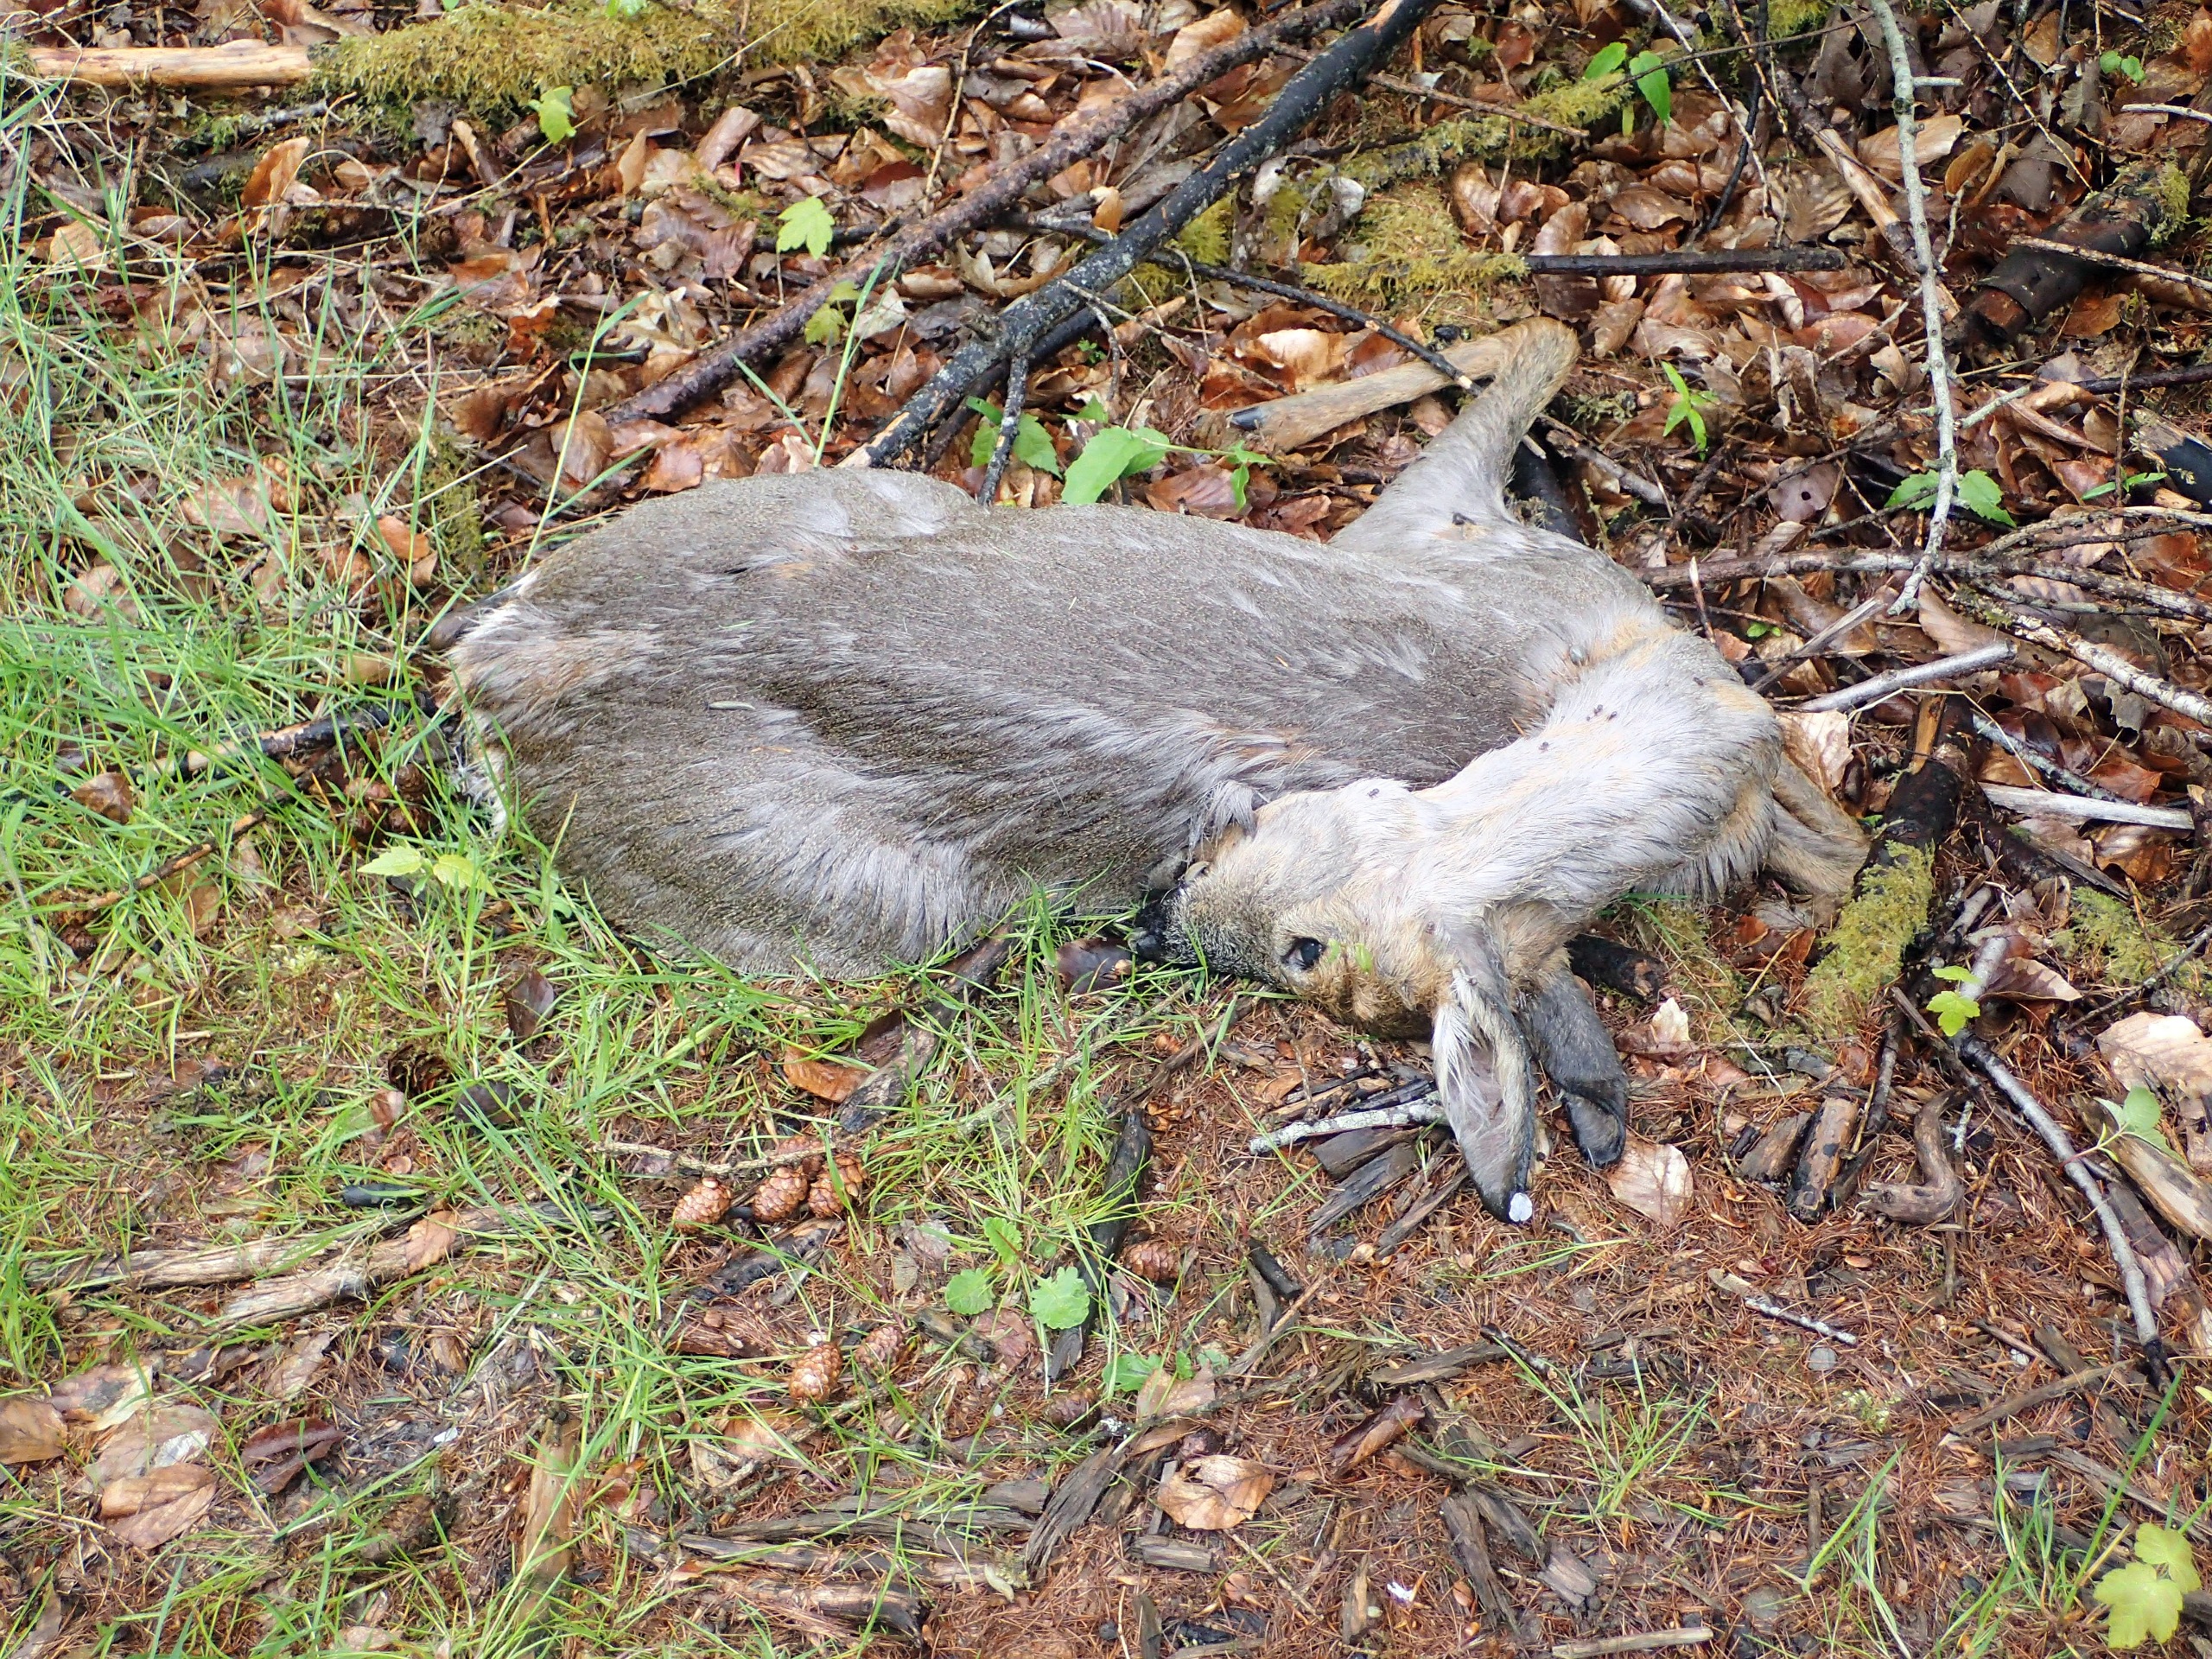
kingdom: Animalia
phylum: Chordata
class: Mammalia
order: Artiodactyla
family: Cervidae
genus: Capreolus
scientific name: Capreolus capreolus
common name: Rådyr
